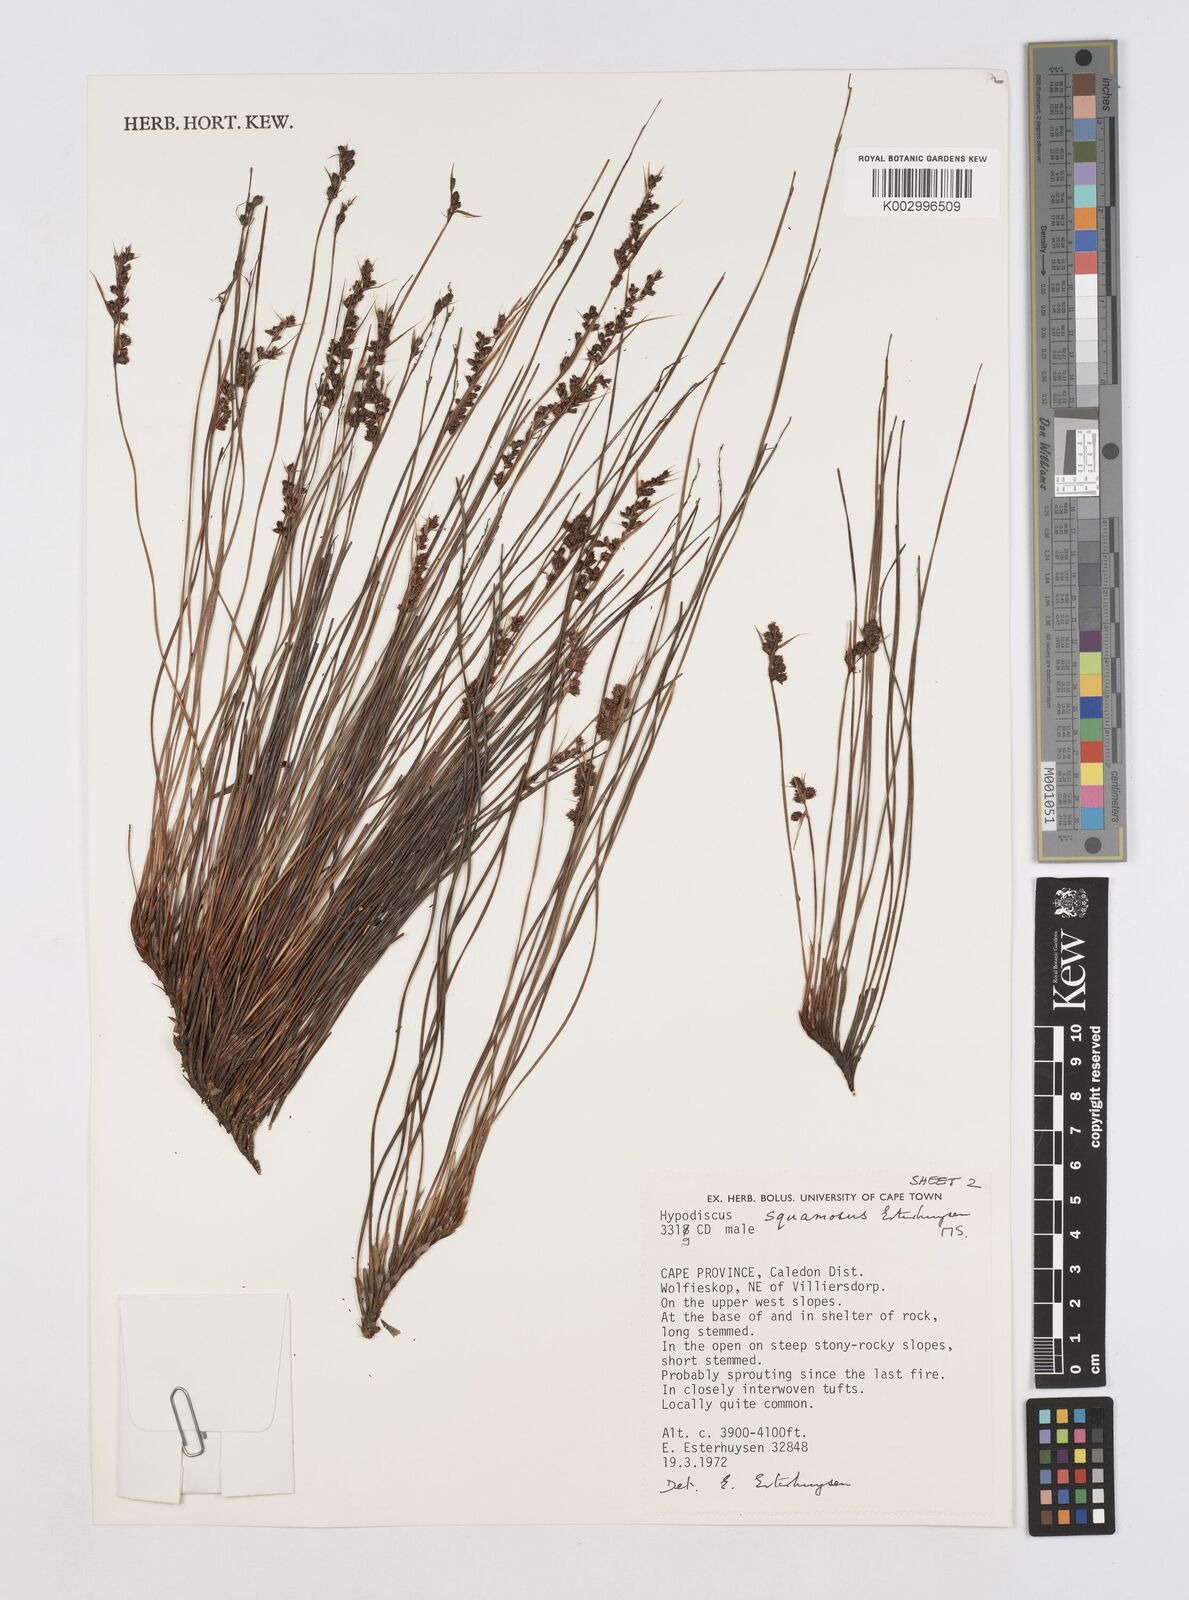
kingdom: Plantae
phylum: Tracheophyta
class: Liliopsida
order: Poales
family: Restionaceae
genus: Hypodiscus
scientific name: Hypodiscus squamosus
